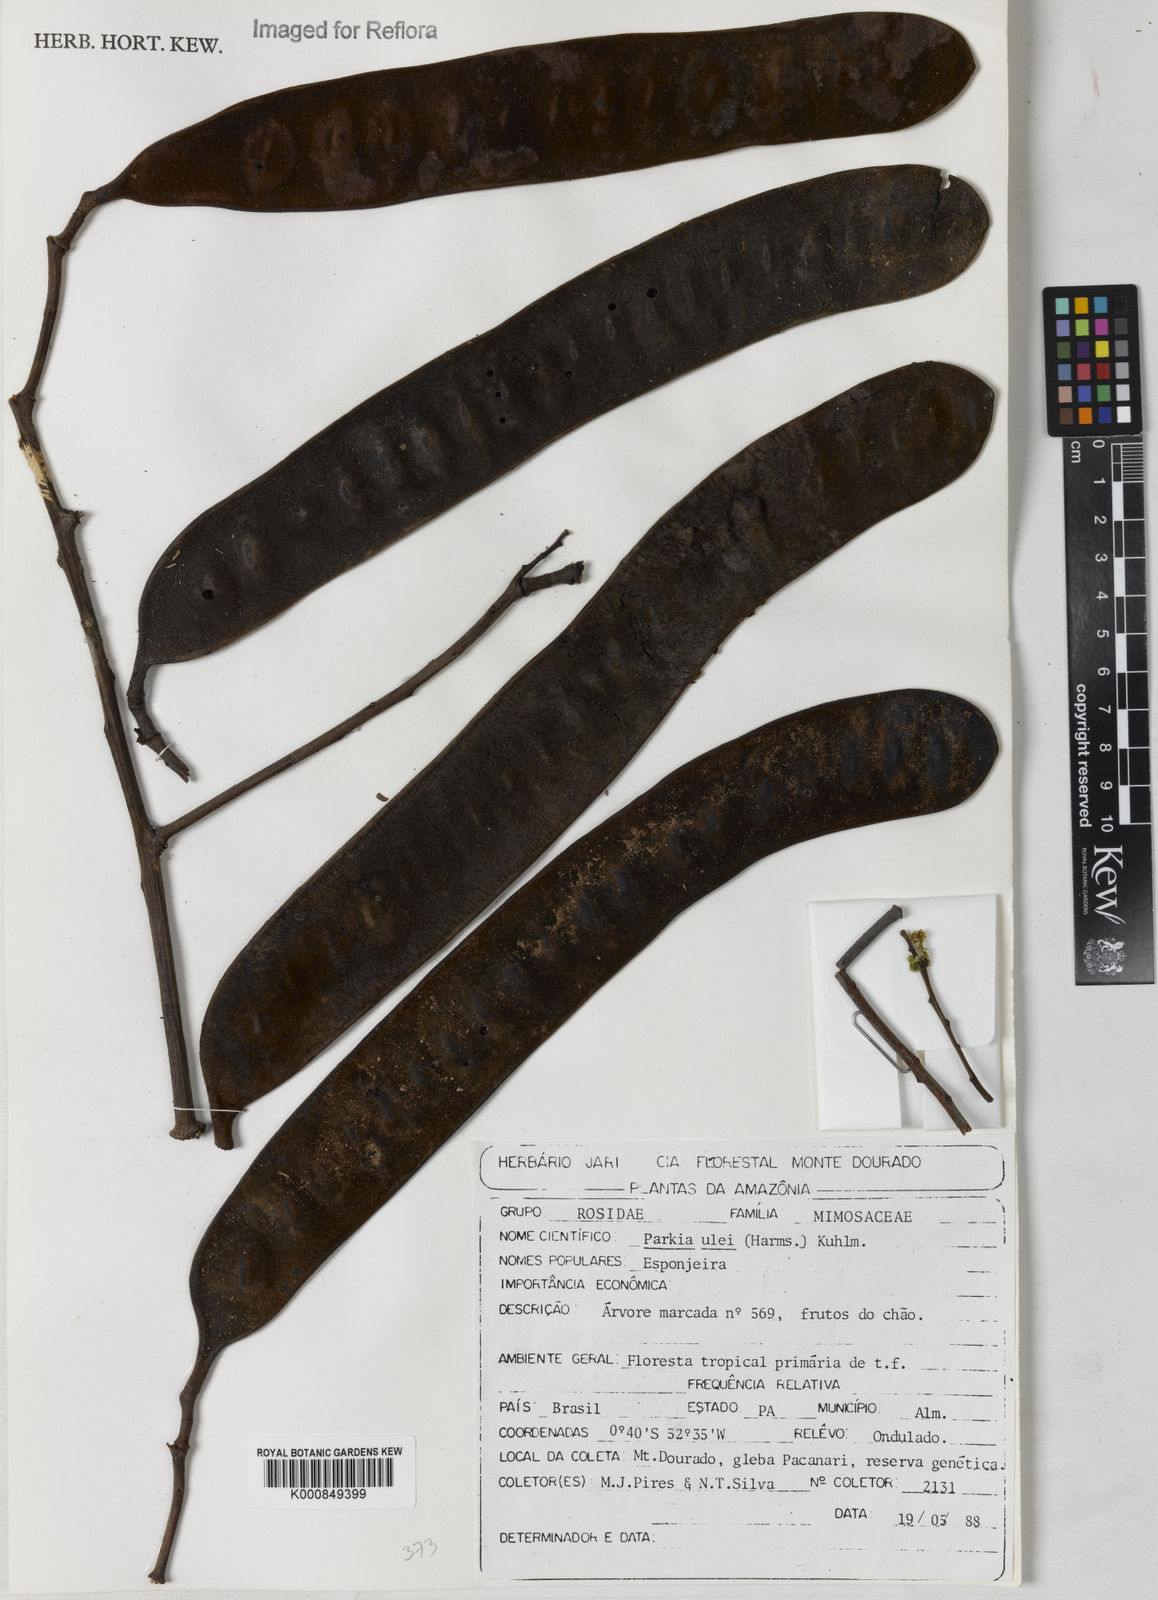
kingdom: Plantae
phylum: Tracheophyta
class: Magnoliopsida
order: Fabales
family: Fabaceae
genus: Parkia
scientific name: Parkia ulei
